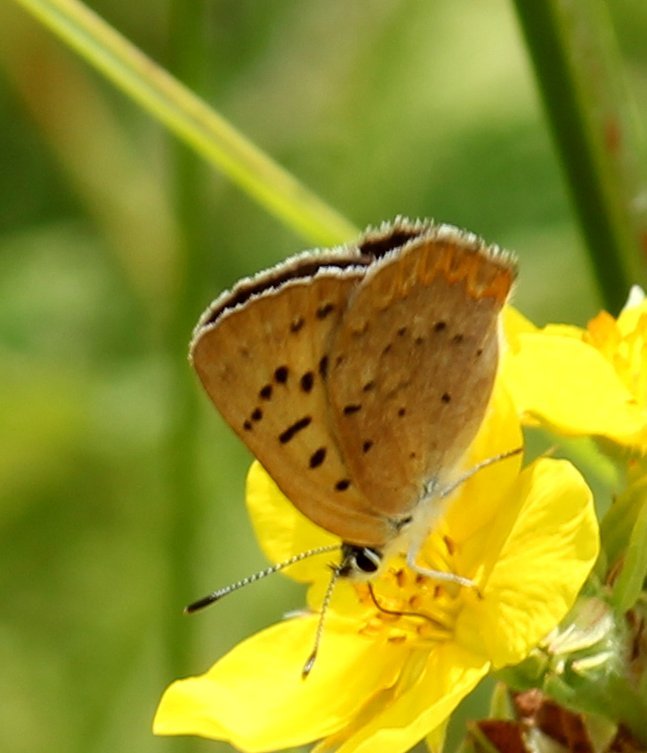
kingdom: Animalia
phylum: Arthropoda
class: Insecta
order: Lepidoptera
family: Lycaenidae
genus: Epidemia
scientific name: Epidemia dorcas
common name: Dorcas Copper
